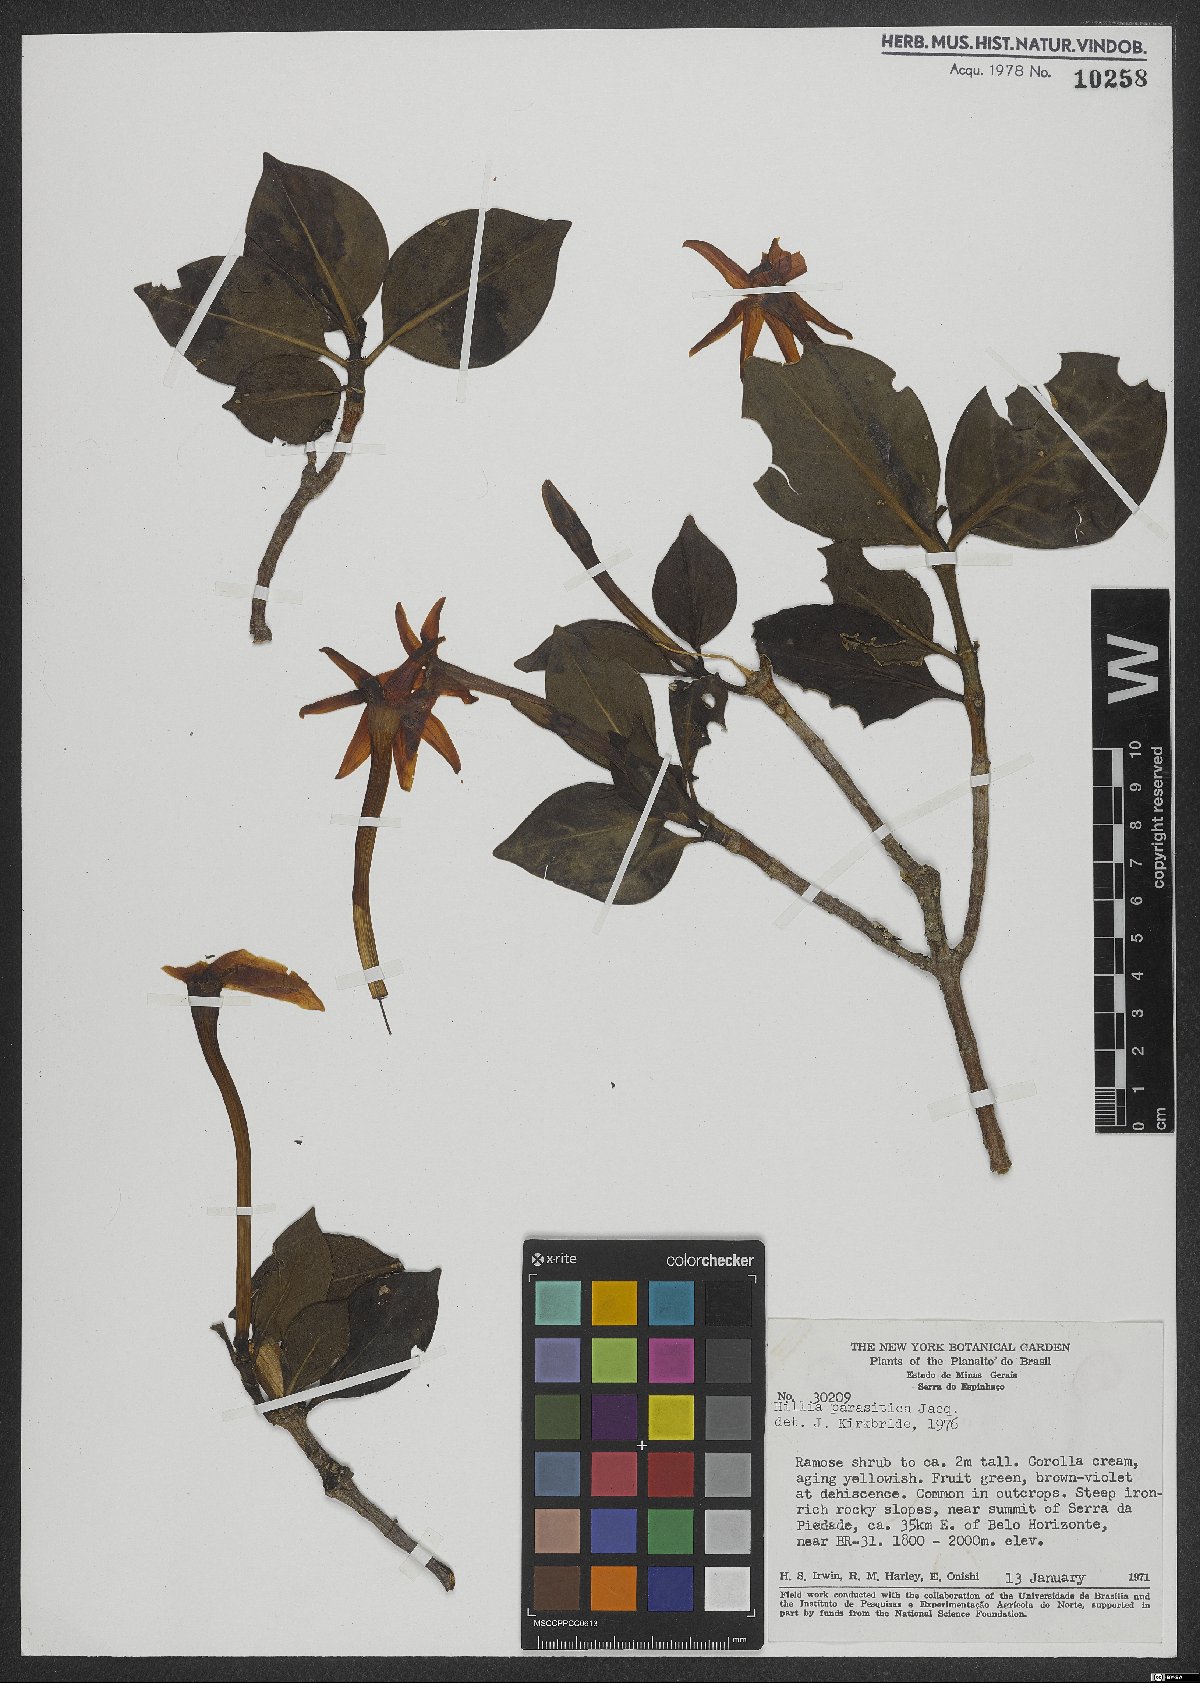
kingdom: Plantae
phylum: Tracheophyta
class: Magnoliopsida
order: Gentianales
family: Rubiaceae
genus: Hillia
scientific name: Hillia parasitica
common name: Morning star
